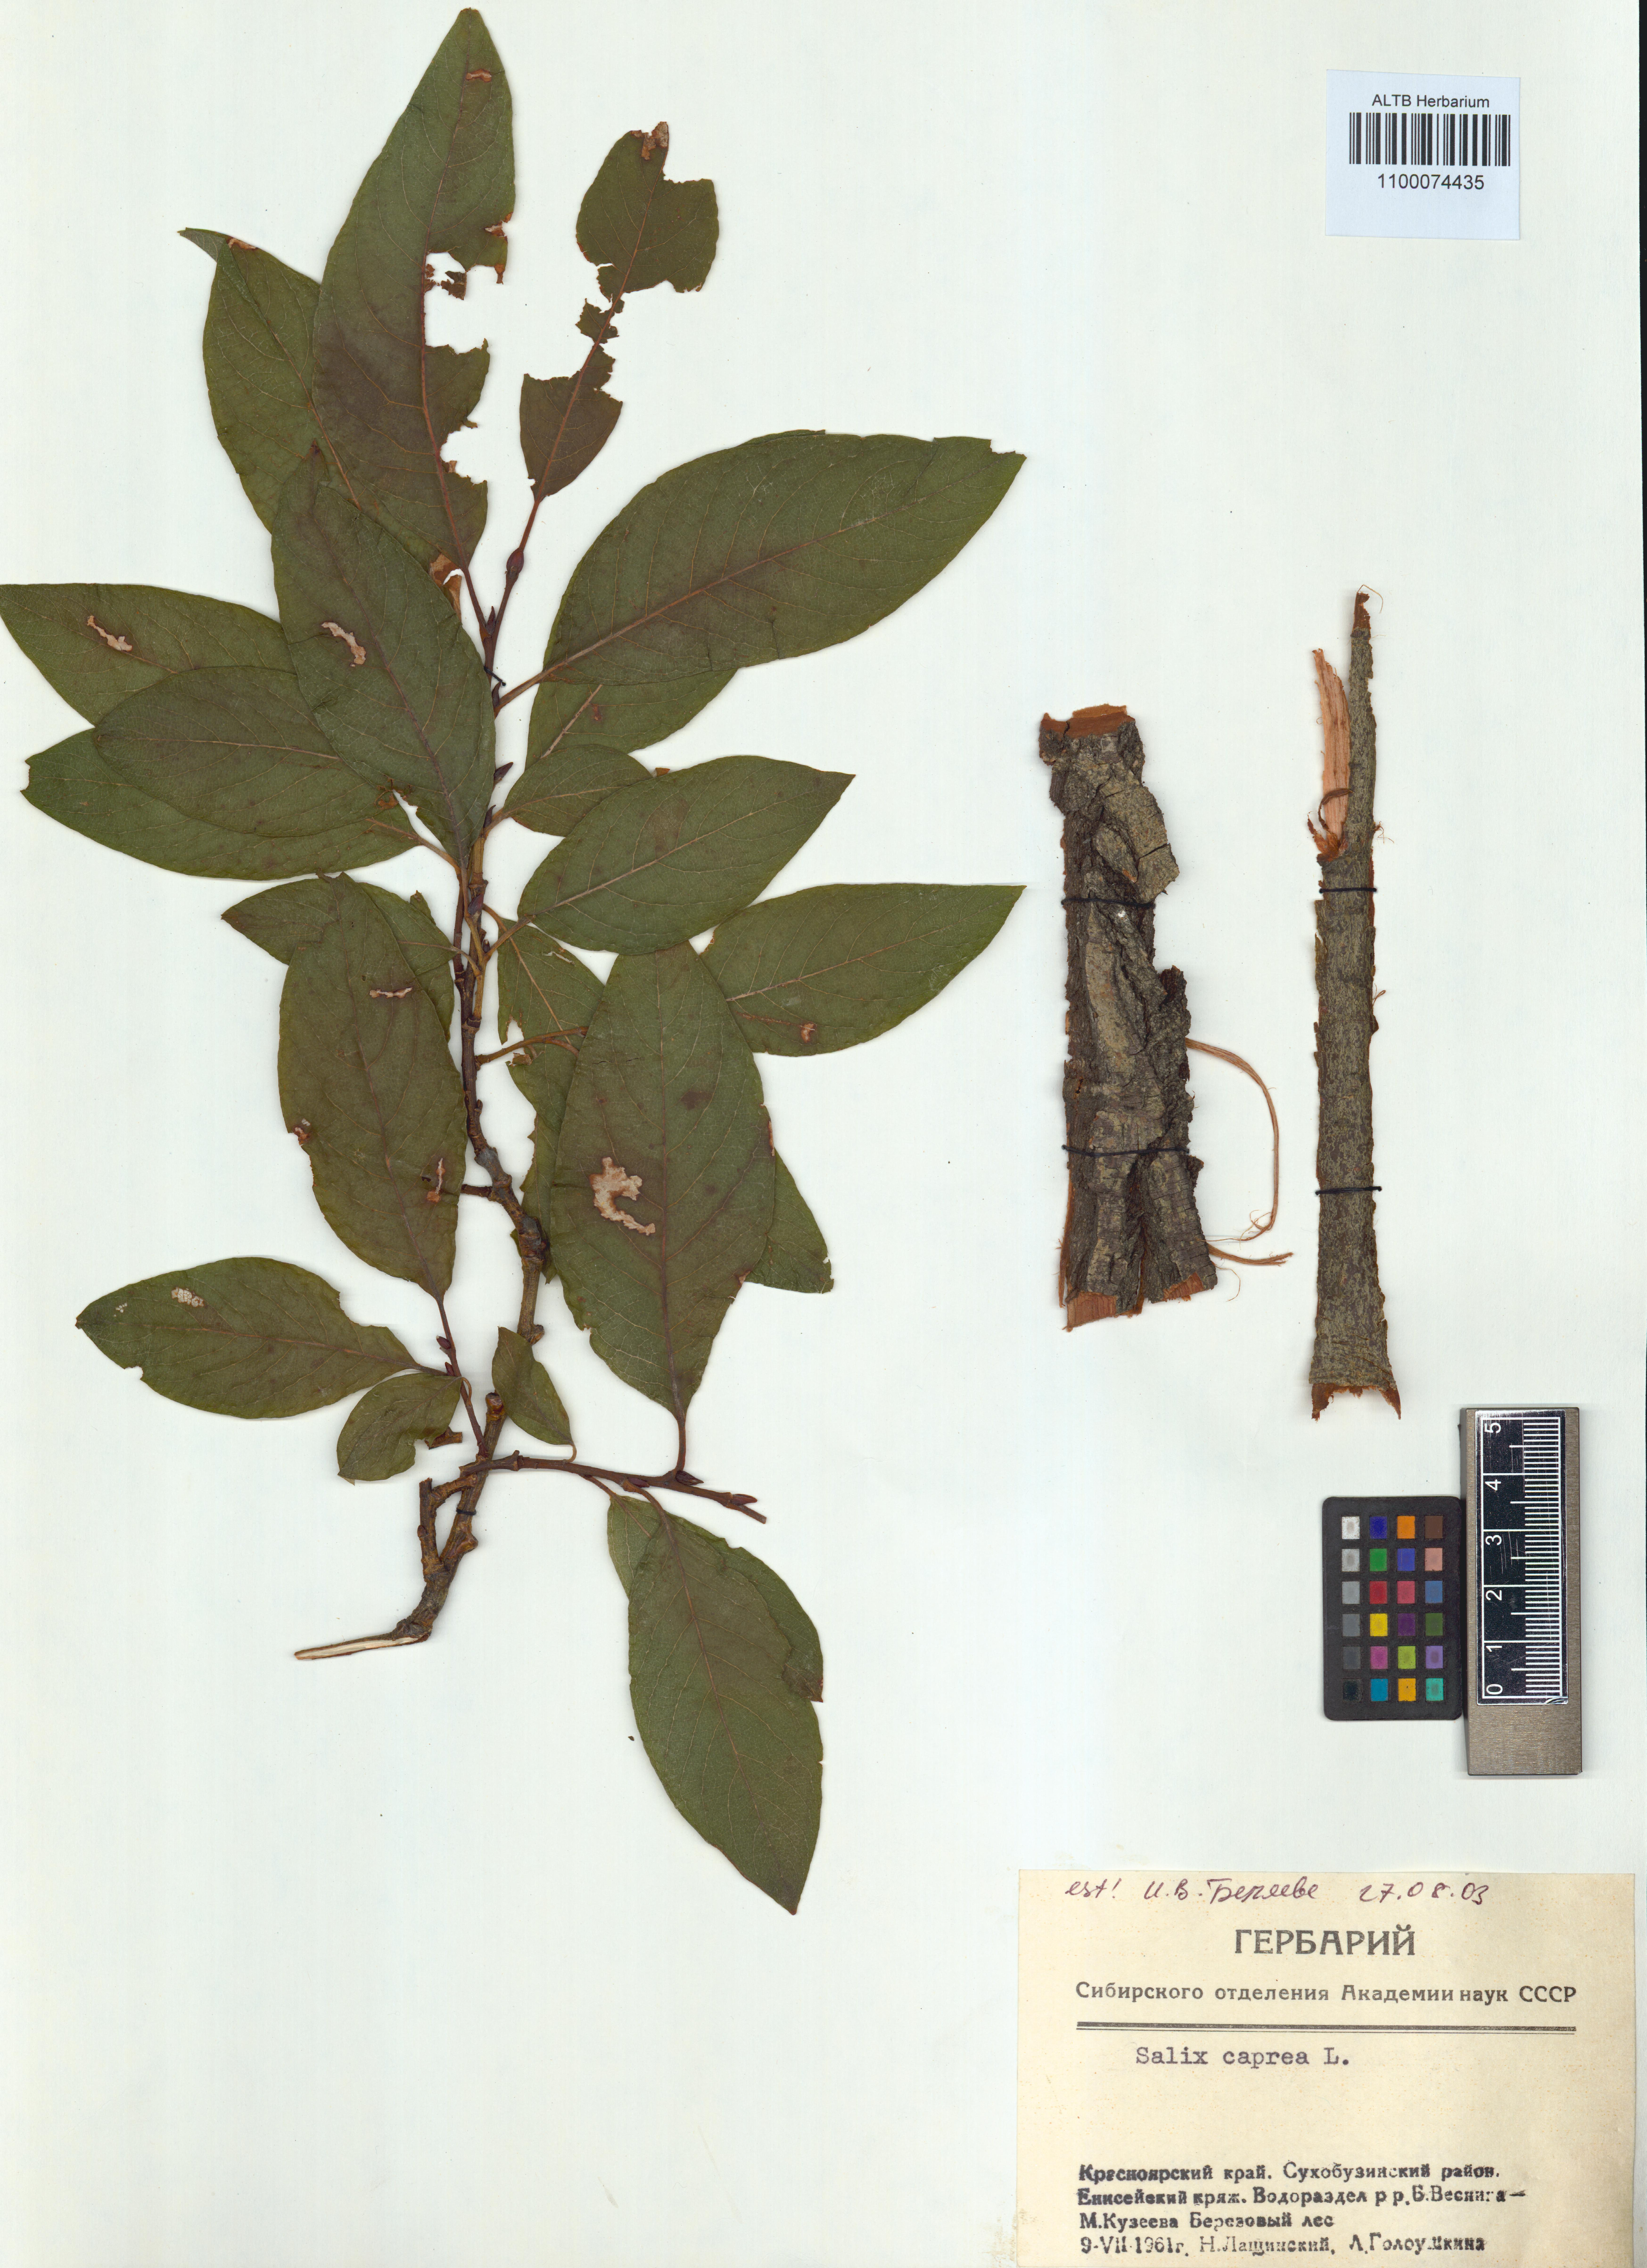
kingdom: Plantae
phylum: Tracheophyta
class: Magnoliopsida
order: Malpighiales
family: Salicaceae
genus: Salix
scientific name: Salix caprea
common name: Goat willow
